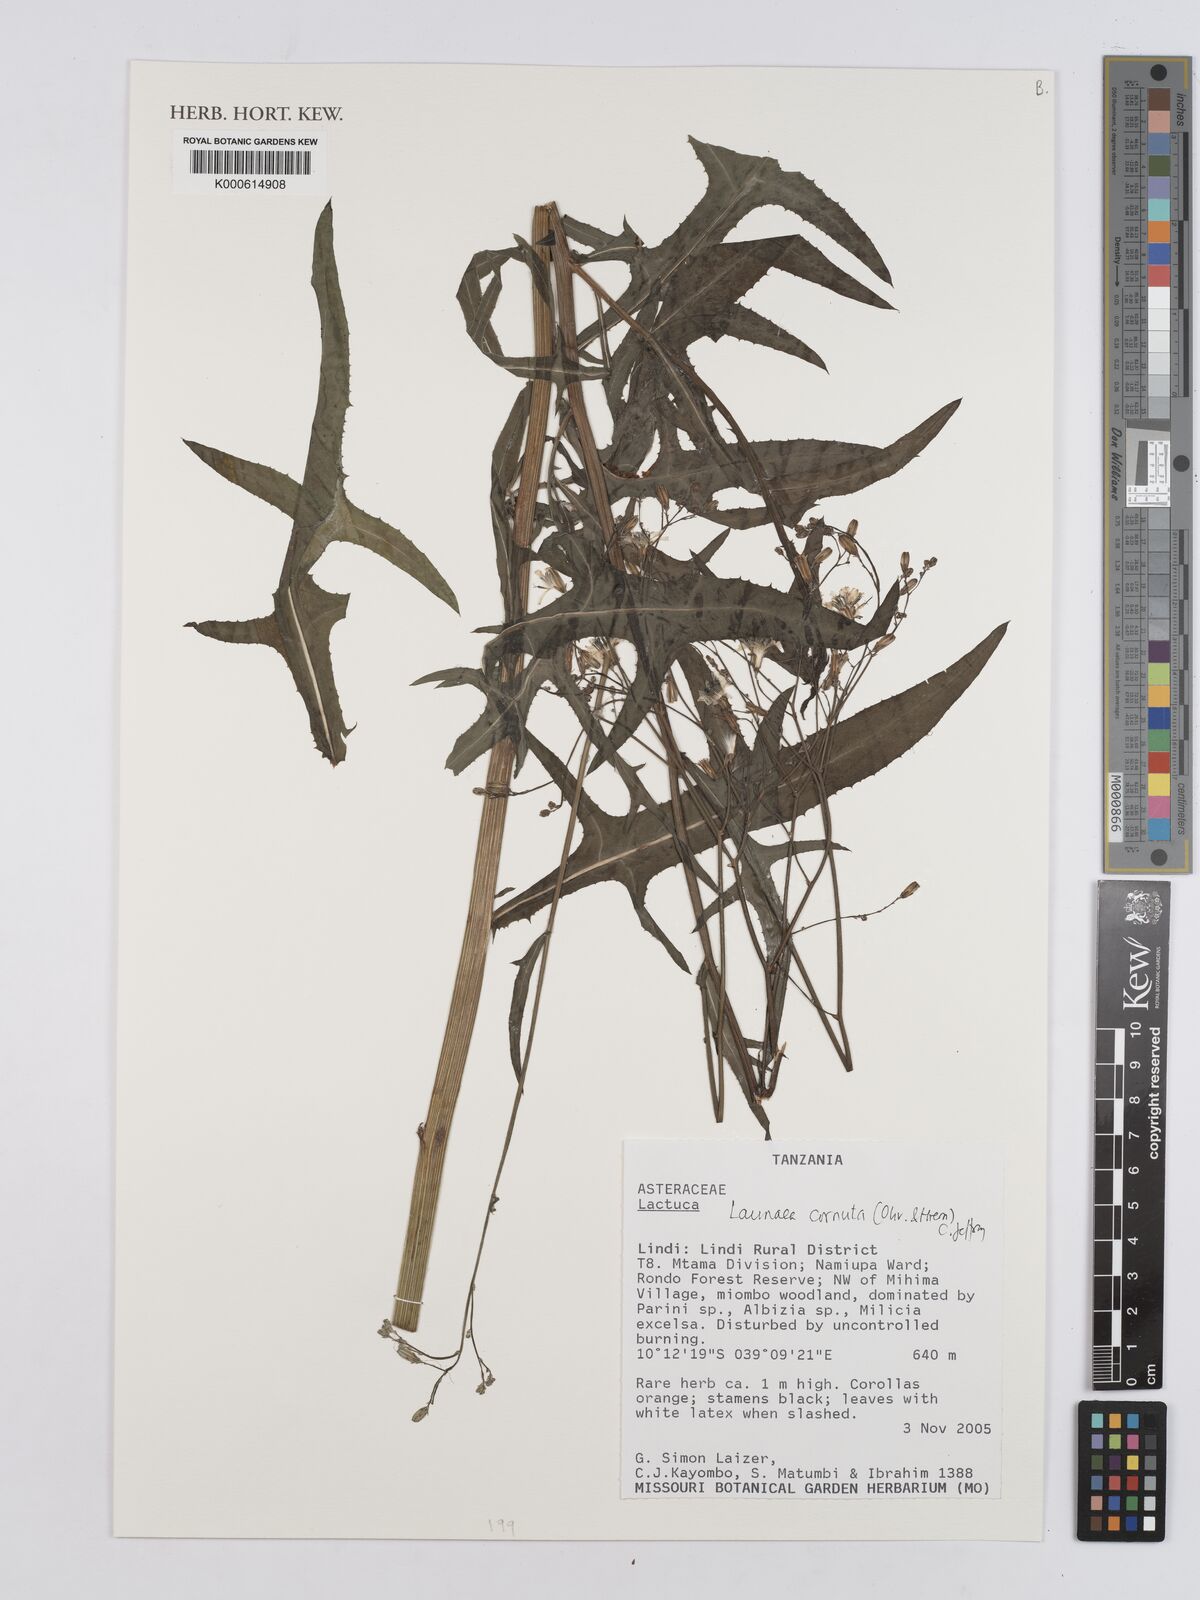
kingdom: Plantae
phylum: Tracheophyta
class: Magnoliopsida
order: Asterales
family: Asteraceae
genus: Launaea
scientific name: Launaea cornuta
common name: Bitter-lettuce
